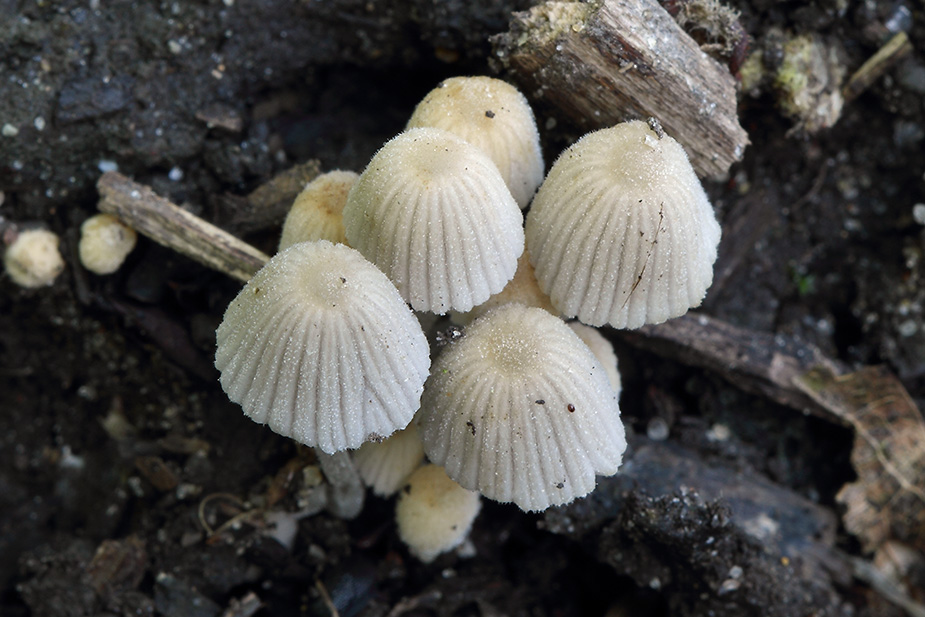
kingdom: Fungi
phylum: Basidiomycota
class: Agaricomycetes
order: Agaricales
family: Psathyrellaceae
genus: Coprinellus
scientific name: Coprinellus disseminatus
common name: bredsået blækhat
